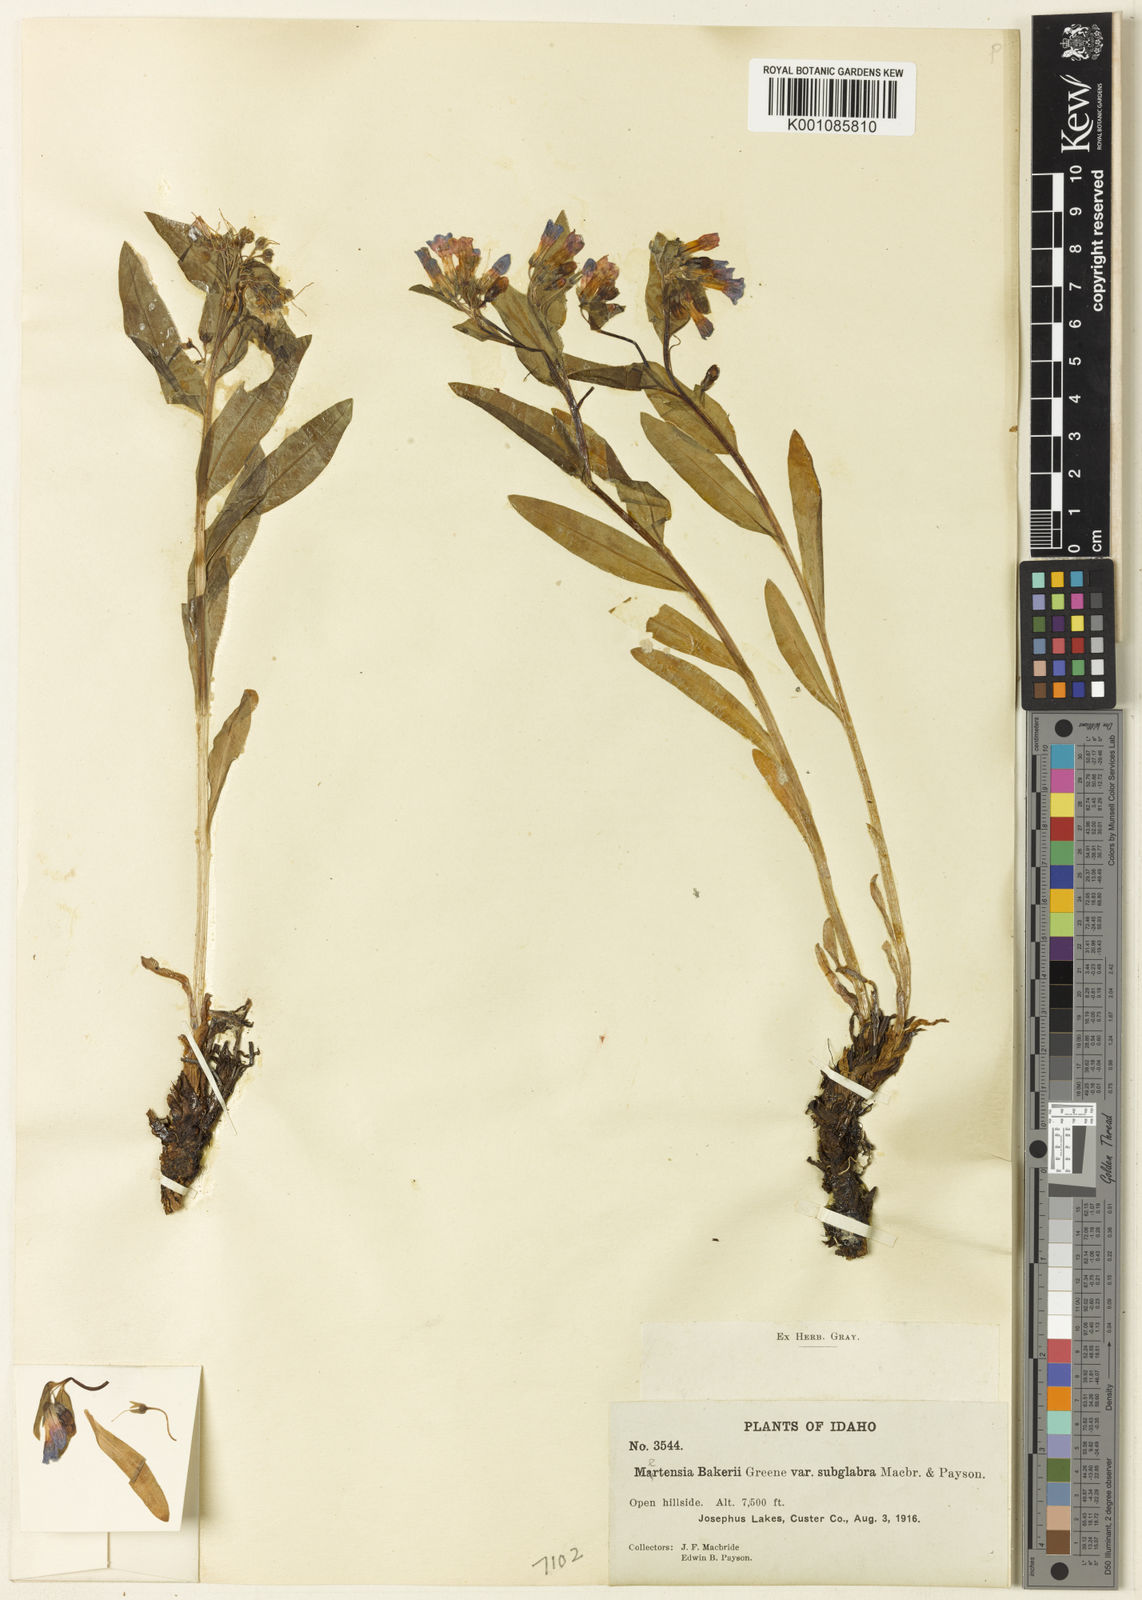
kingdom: Plantae
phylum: Tracheophyta
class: Magnoliopsida
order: Boraginales
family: Boraginaceae
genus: Mertensia
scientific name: Mertensia oblongifolia
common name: Sagebrush bluebells
